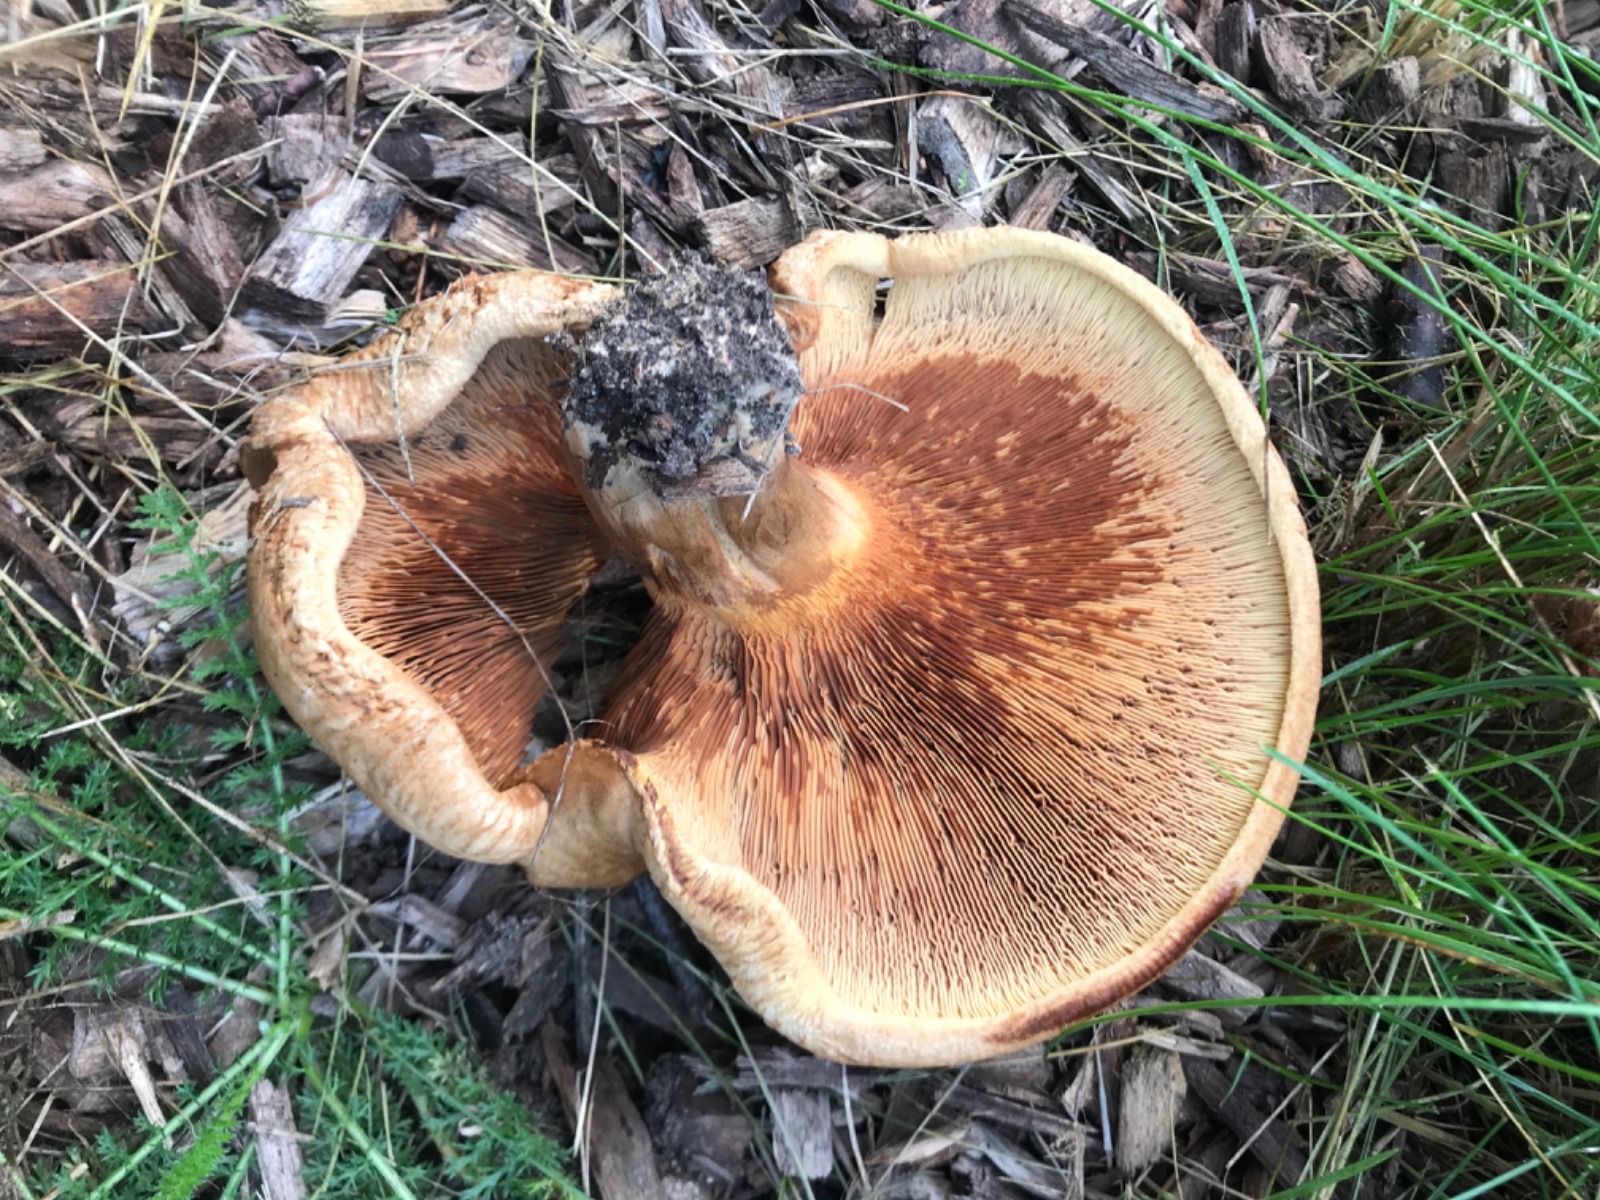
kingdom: Fungi
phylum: Basidiomycota
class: Agaricomycetes
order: Boletales
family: Paxillaceae
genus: Paxillus
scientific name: Paxillus
